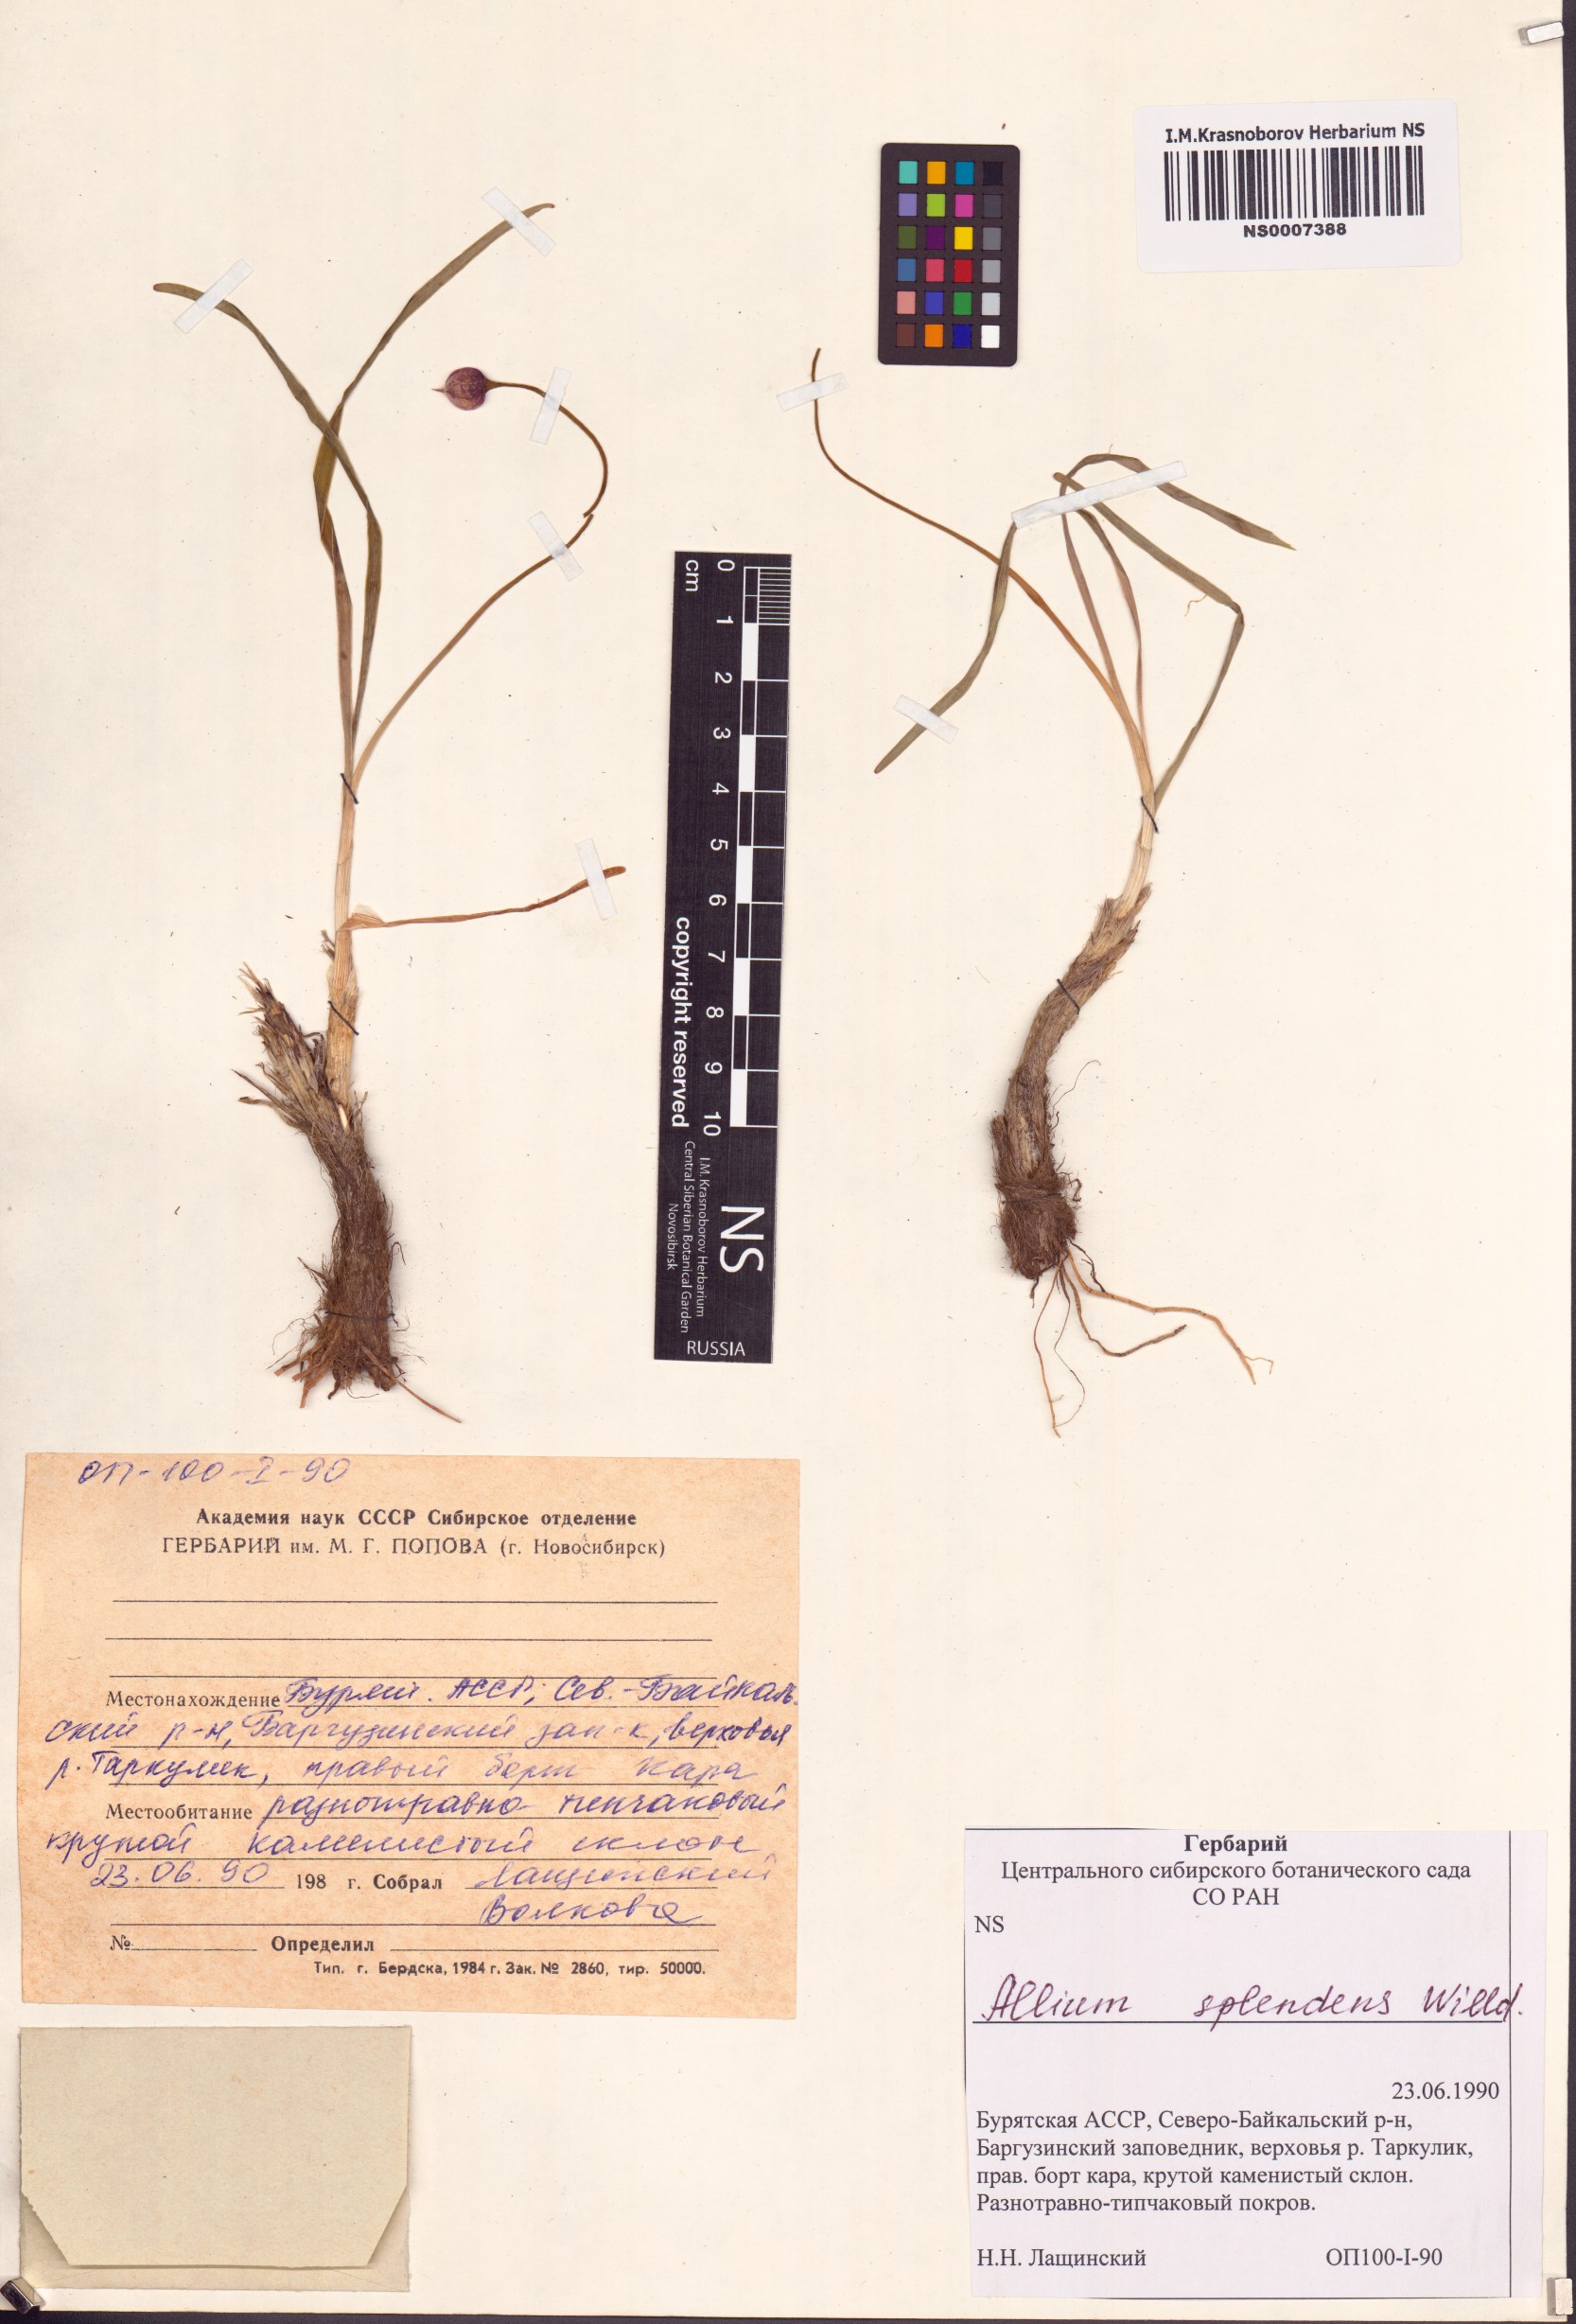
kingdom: Plantae
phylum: Tracheophyta
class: Liliopsida
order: Asparagales
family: Amaryllidaceae
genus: Allium
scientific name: Allium splendens
